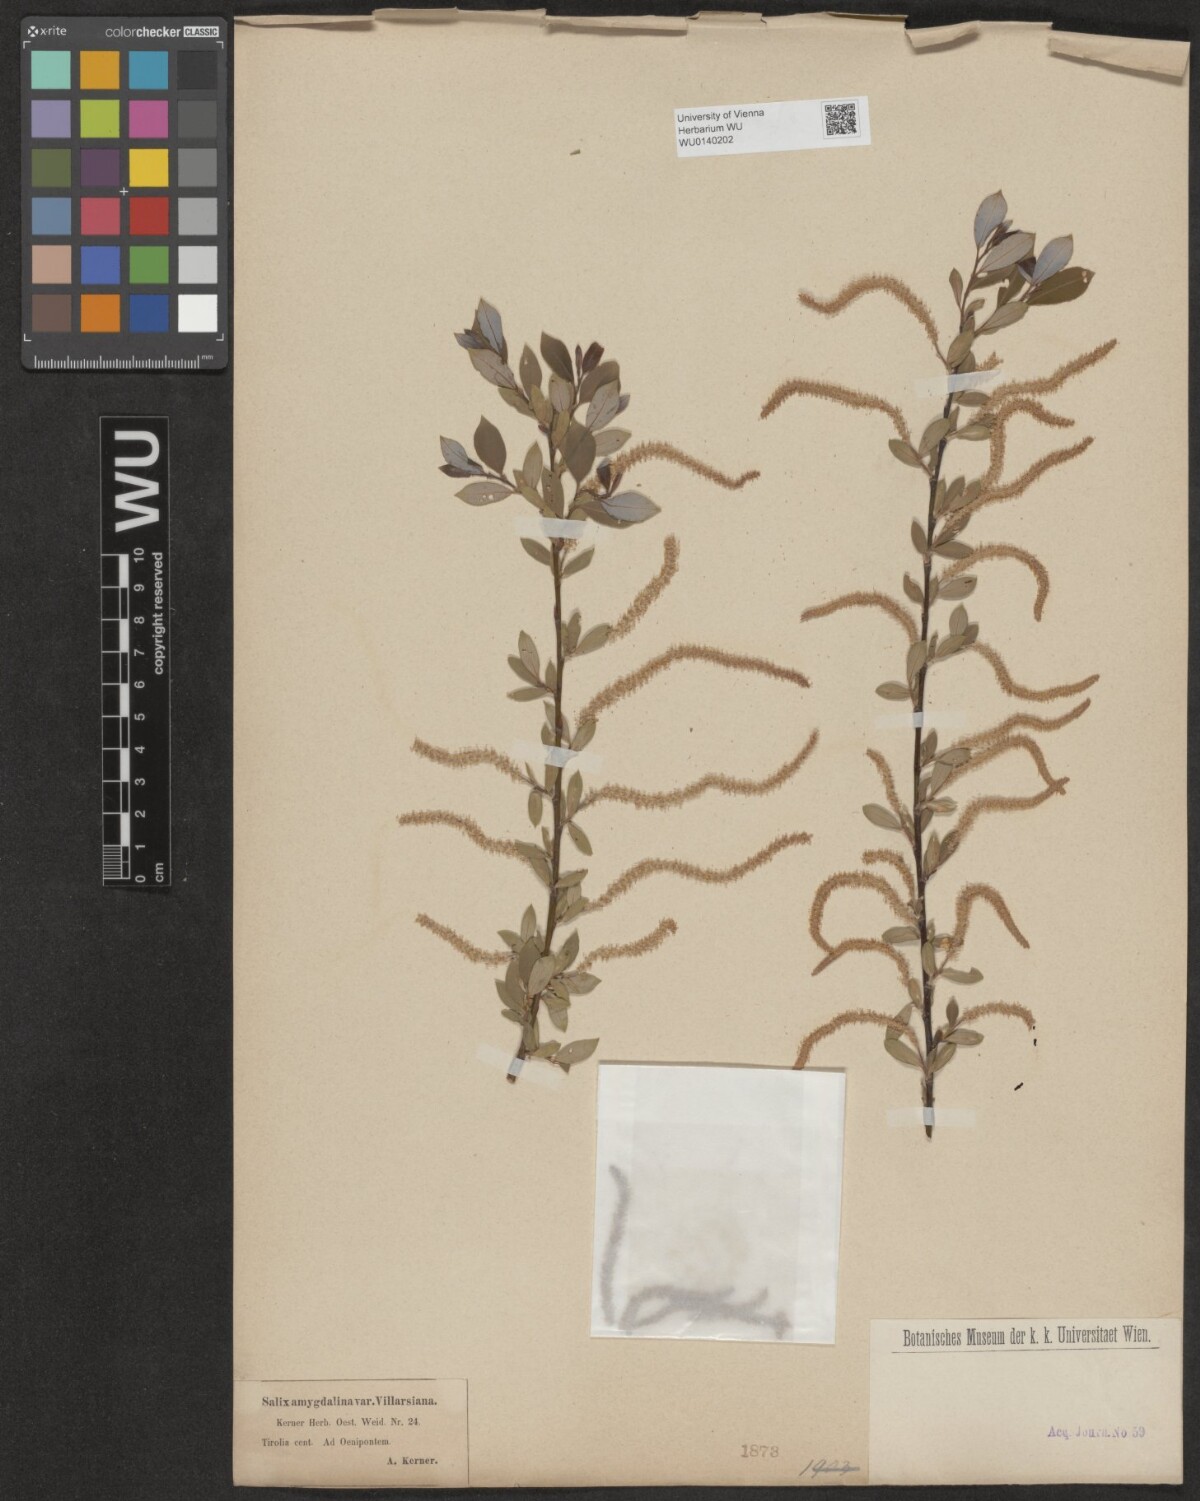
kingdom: Plantae
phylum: Tracheophyta
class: Magnoliopsida
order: Malpighiales
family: Salicaceae
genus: Salix
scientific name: Salix triandra
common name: Almond willow
